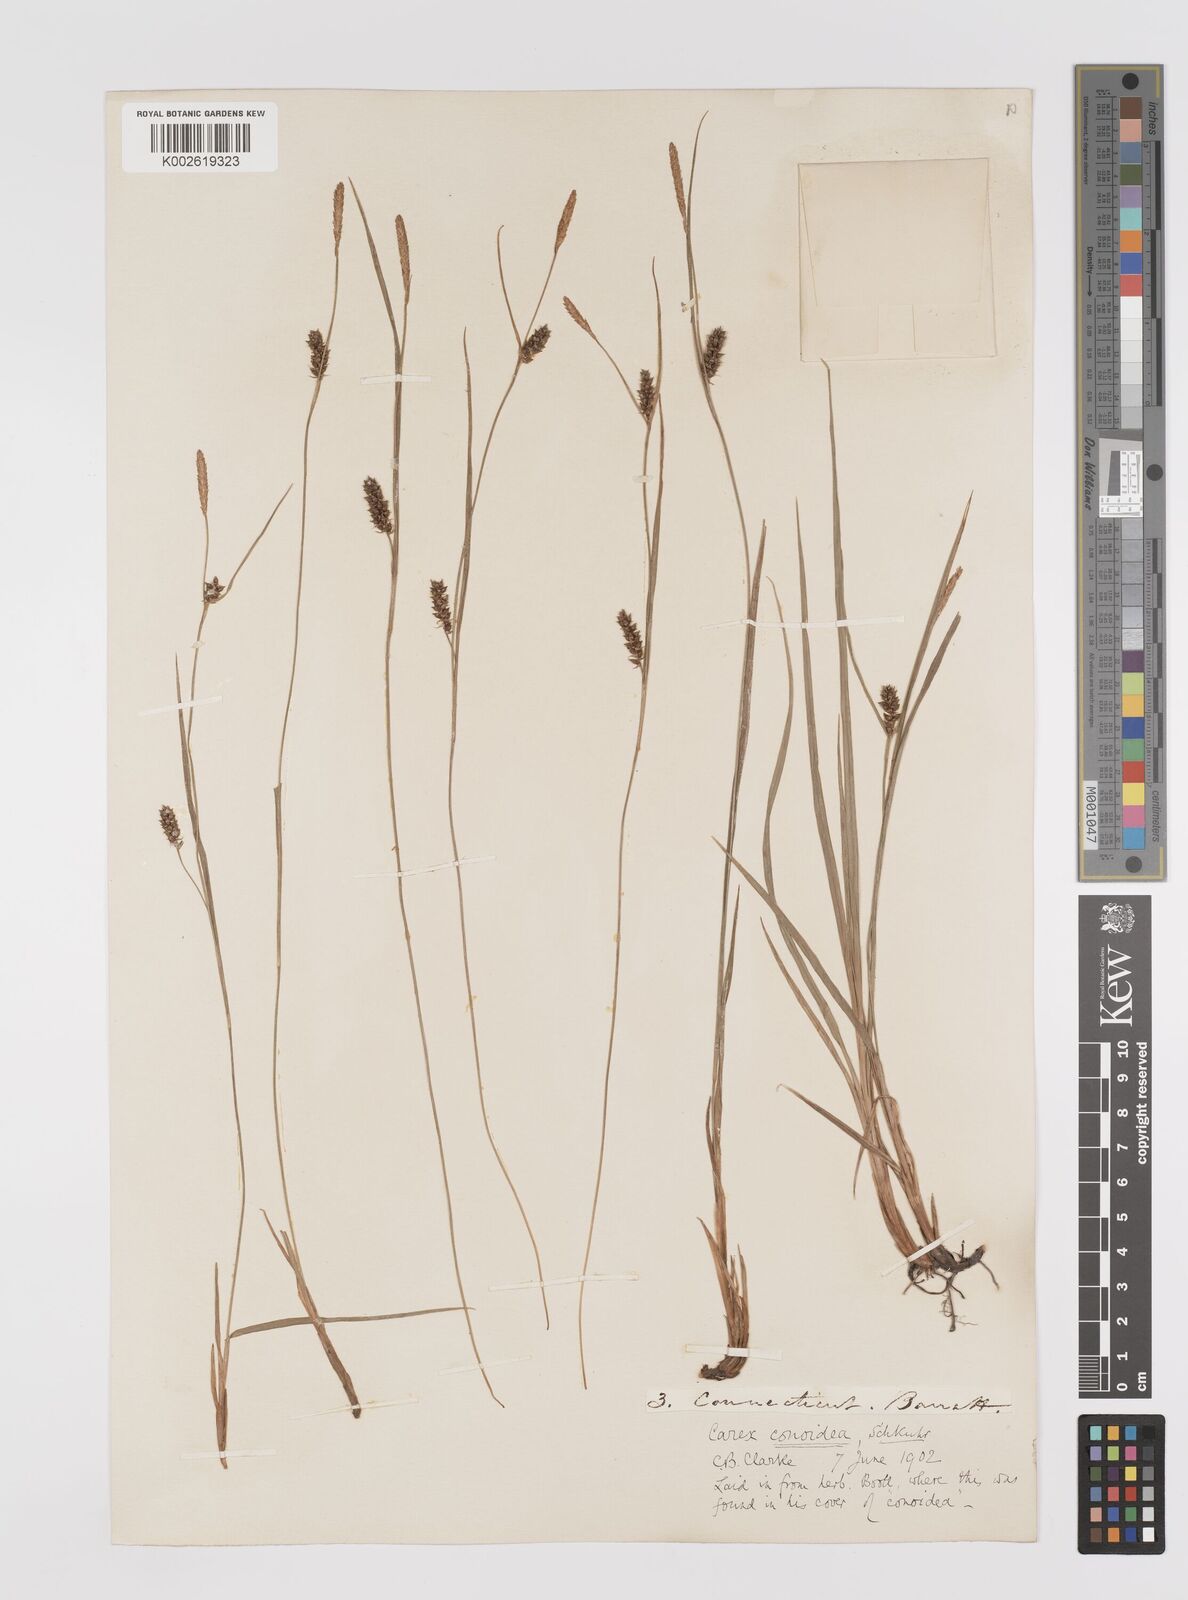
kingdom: Plantae
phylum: Tracheophyta
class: Liliopsida
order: Poales
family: Cyperaceae
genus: Carex
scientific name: Carex conoidea
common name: Cone shaped sedge
